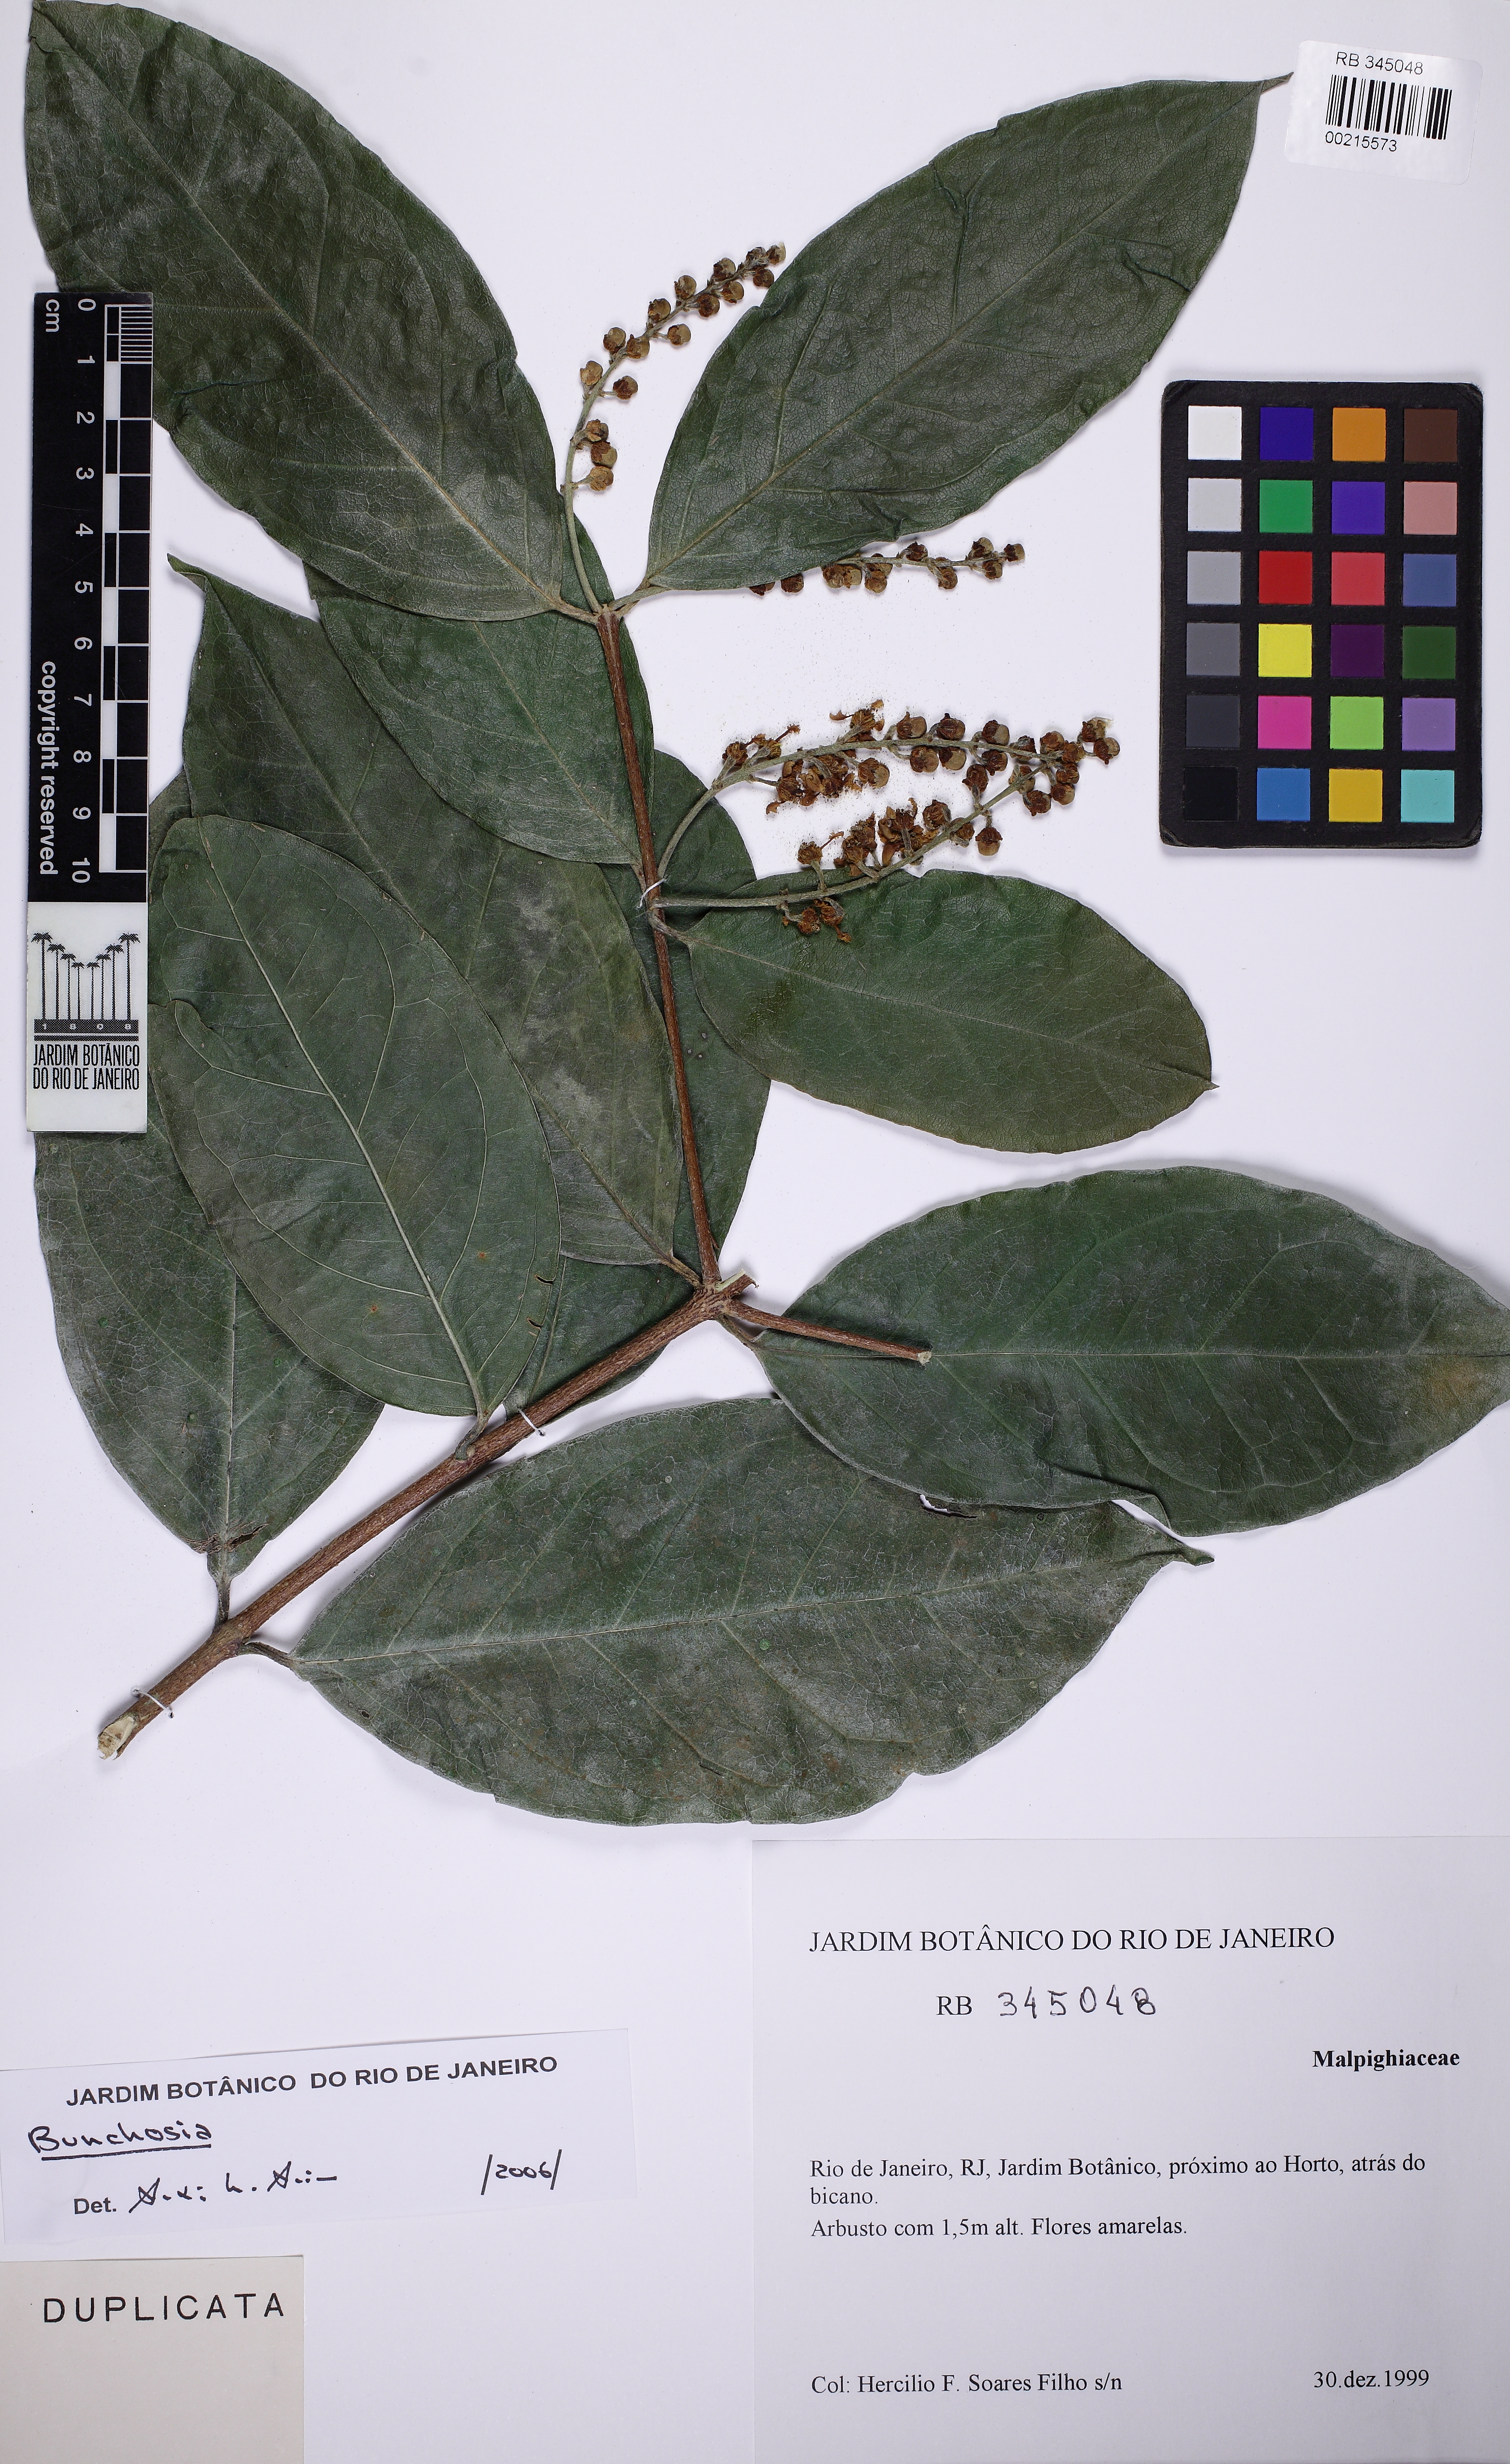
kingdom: Plantae
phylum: Tracheophyta
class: Magnoliopsida
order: Malpighiales
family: Malpighiaceae
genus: Bunchosia
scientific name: Bunchosia maritima
